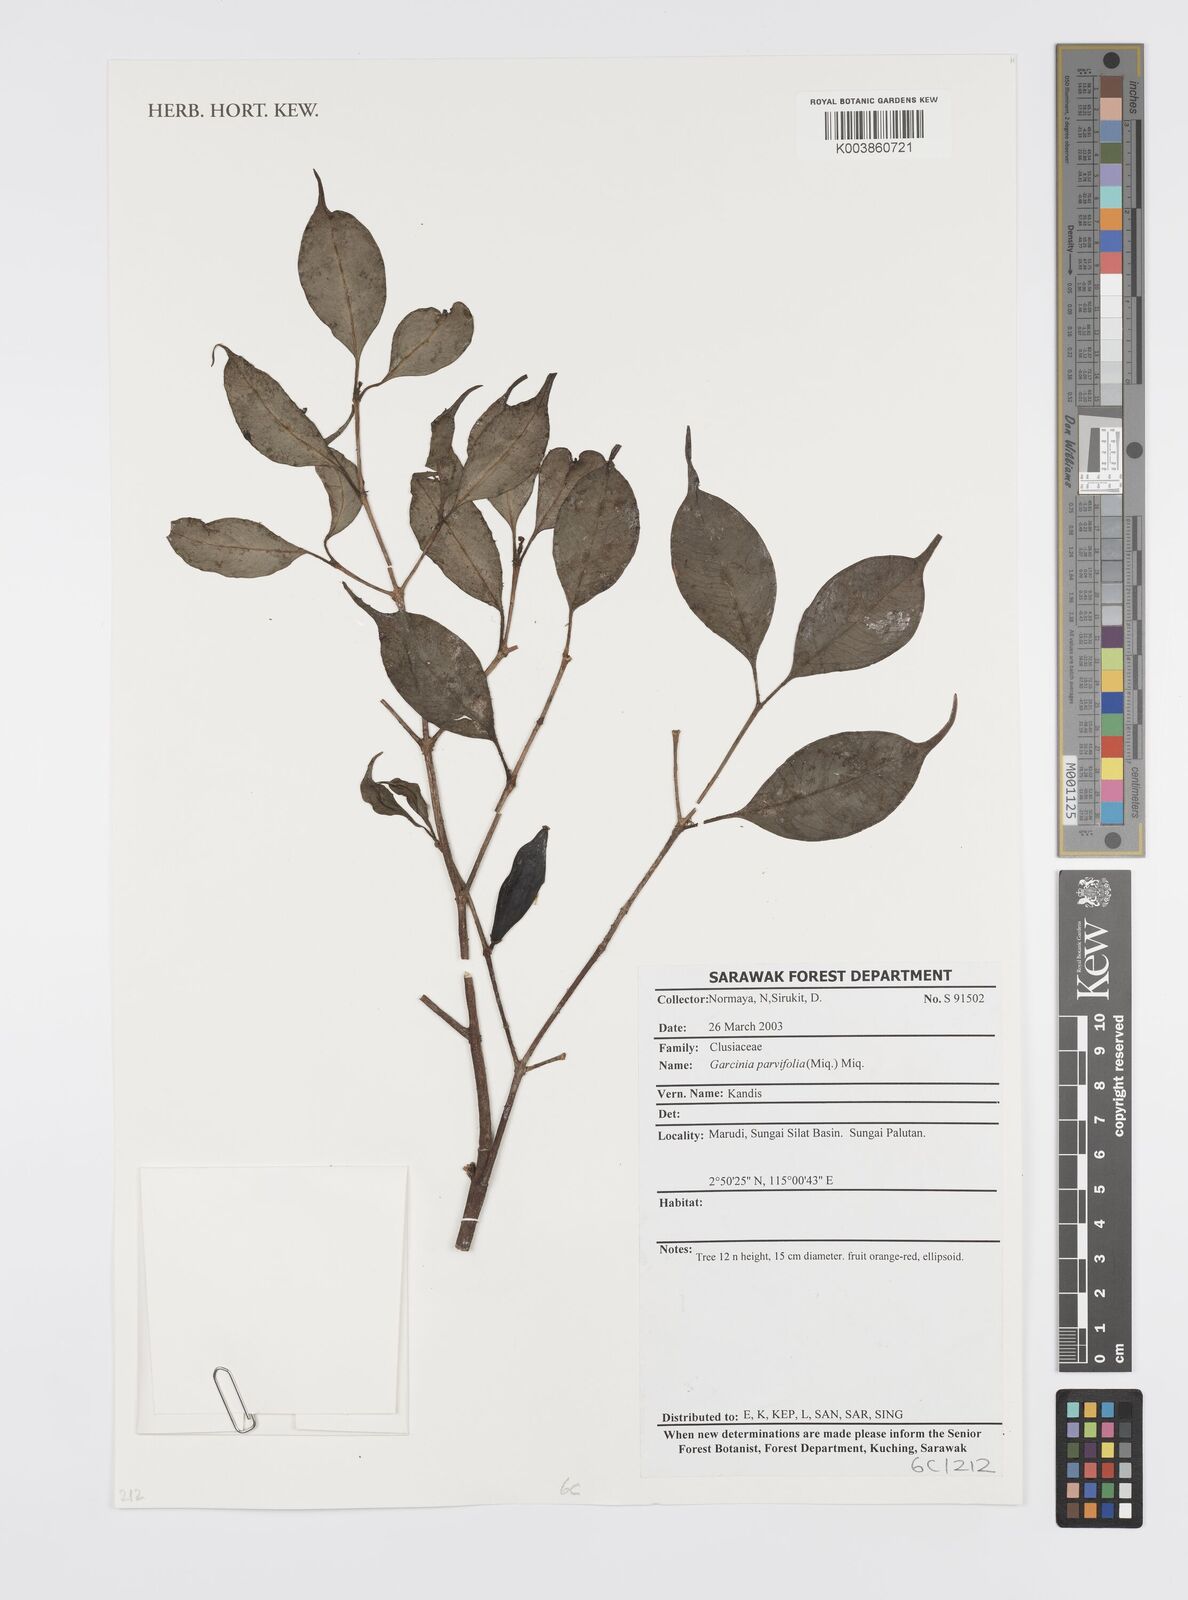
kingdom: Plantae
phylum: Tracheophyta
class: Magnoliopsida
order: Malpighiales
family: Clusiaceae
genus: Garcinia
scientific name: Garcinia parvifolia
